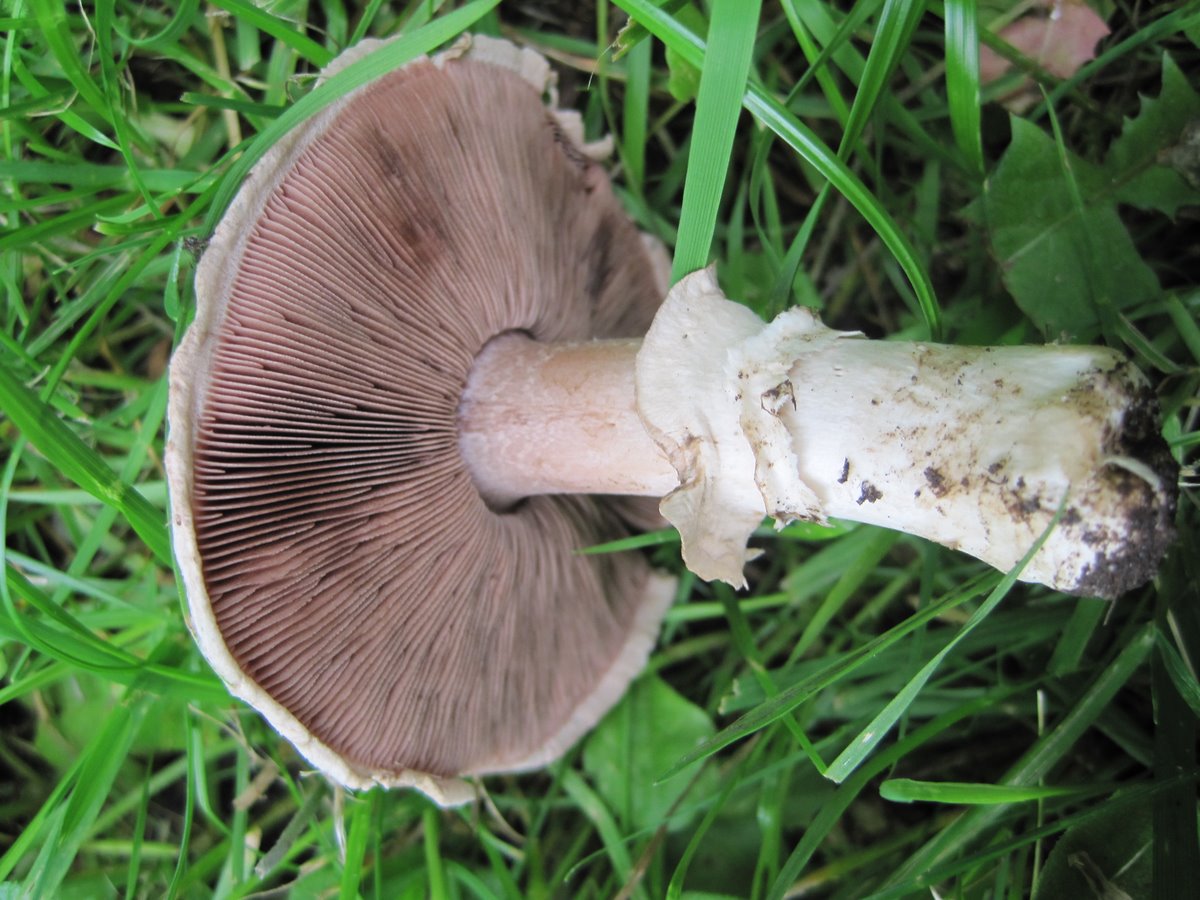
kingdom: Fungi
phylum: Basidiomycota
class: Agaricomycetes
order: Agaricales
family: Agaricaceae
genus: Agaricus
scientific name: Agaricus bitorquis
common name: vej-champignon
